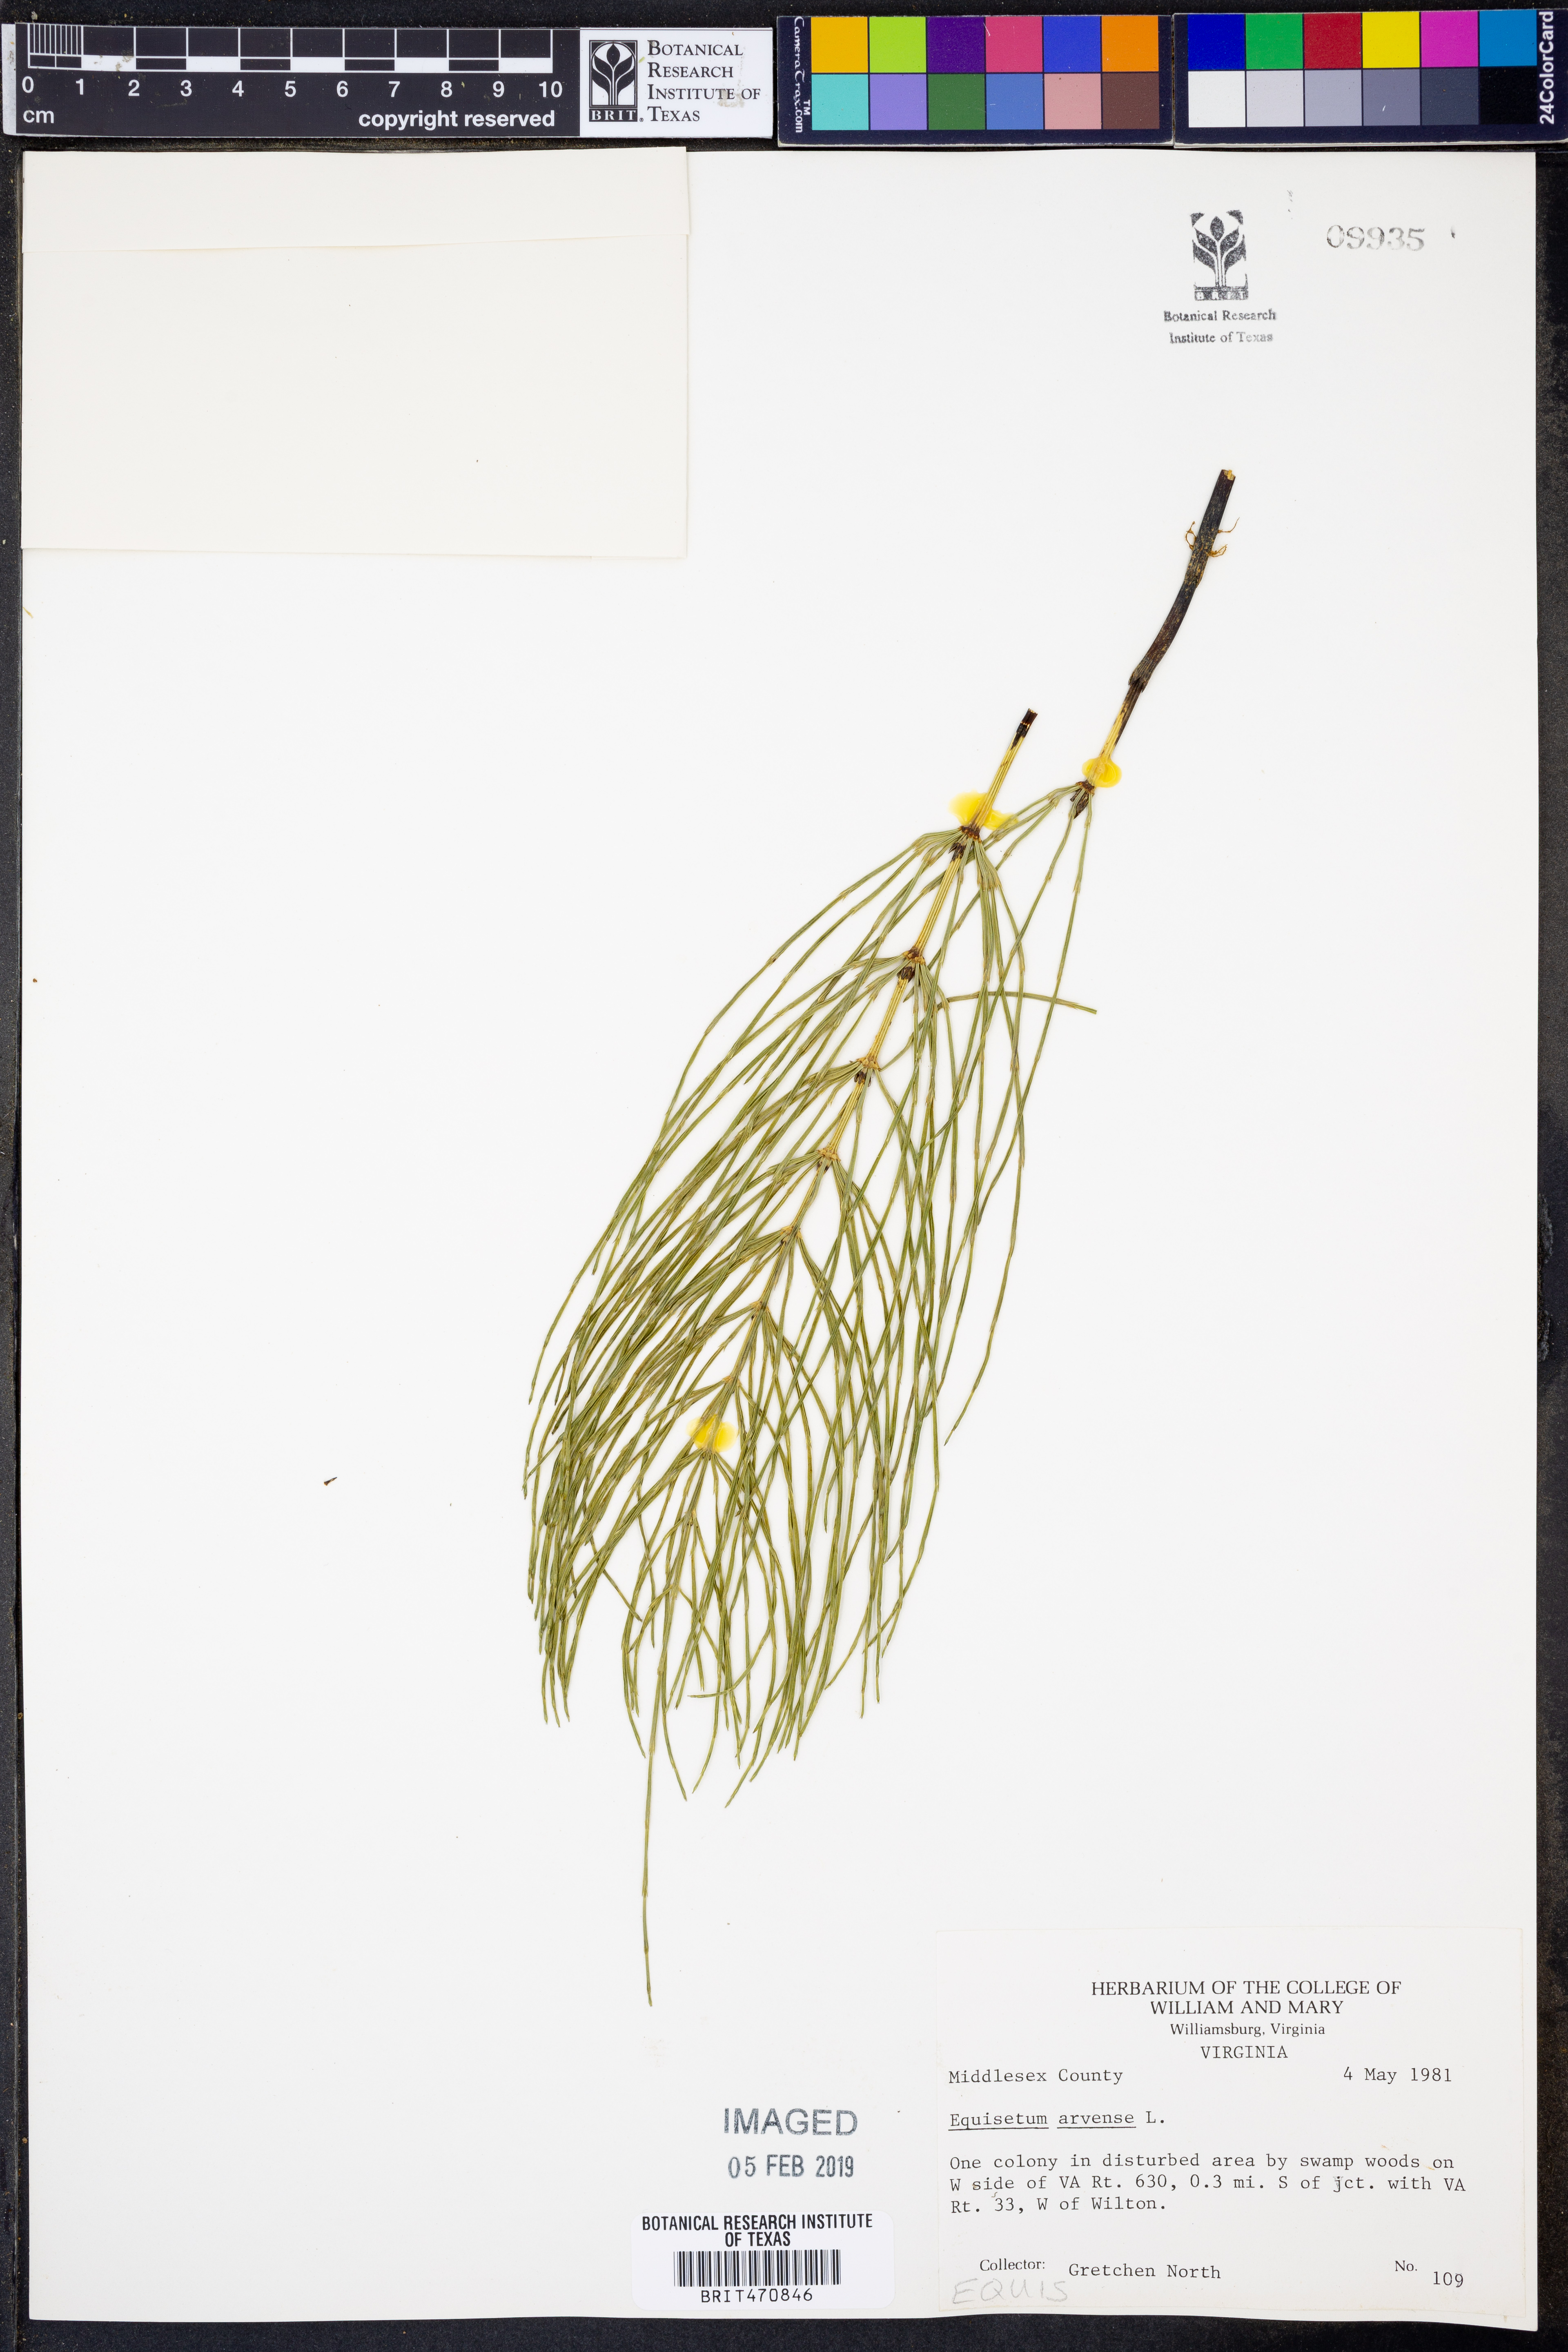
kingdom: Plantae
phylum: Tracheophyta
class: Polypodiopsida
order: Equisetales
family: Equisetaceae
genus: Equisetum
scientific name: Equisetum arvense
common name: Field horsetail
